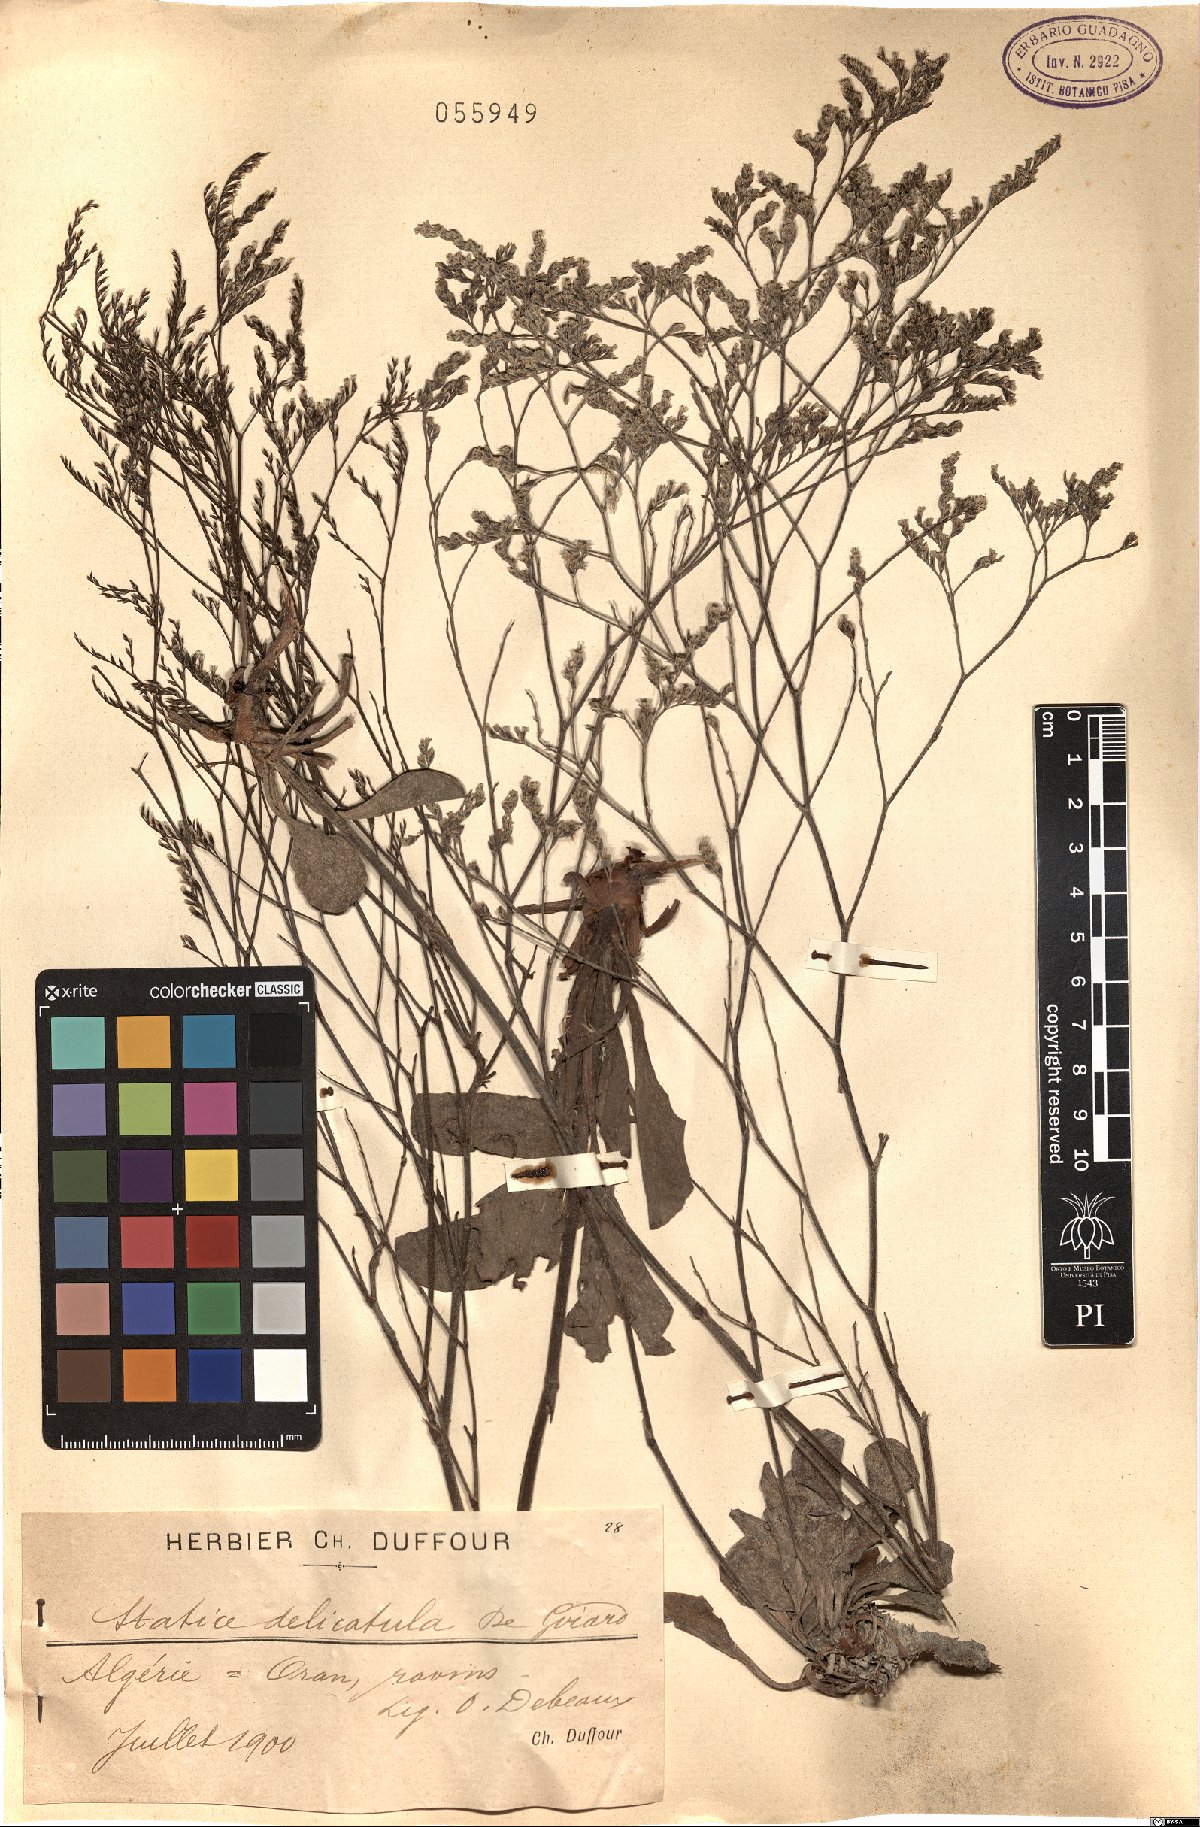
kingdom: Plantae
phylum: Tracheophyta
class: Magnoliopsida
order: Caryophyllales
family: Plumbaginaceae
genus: Limonium
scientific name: Limonium delicatulum
